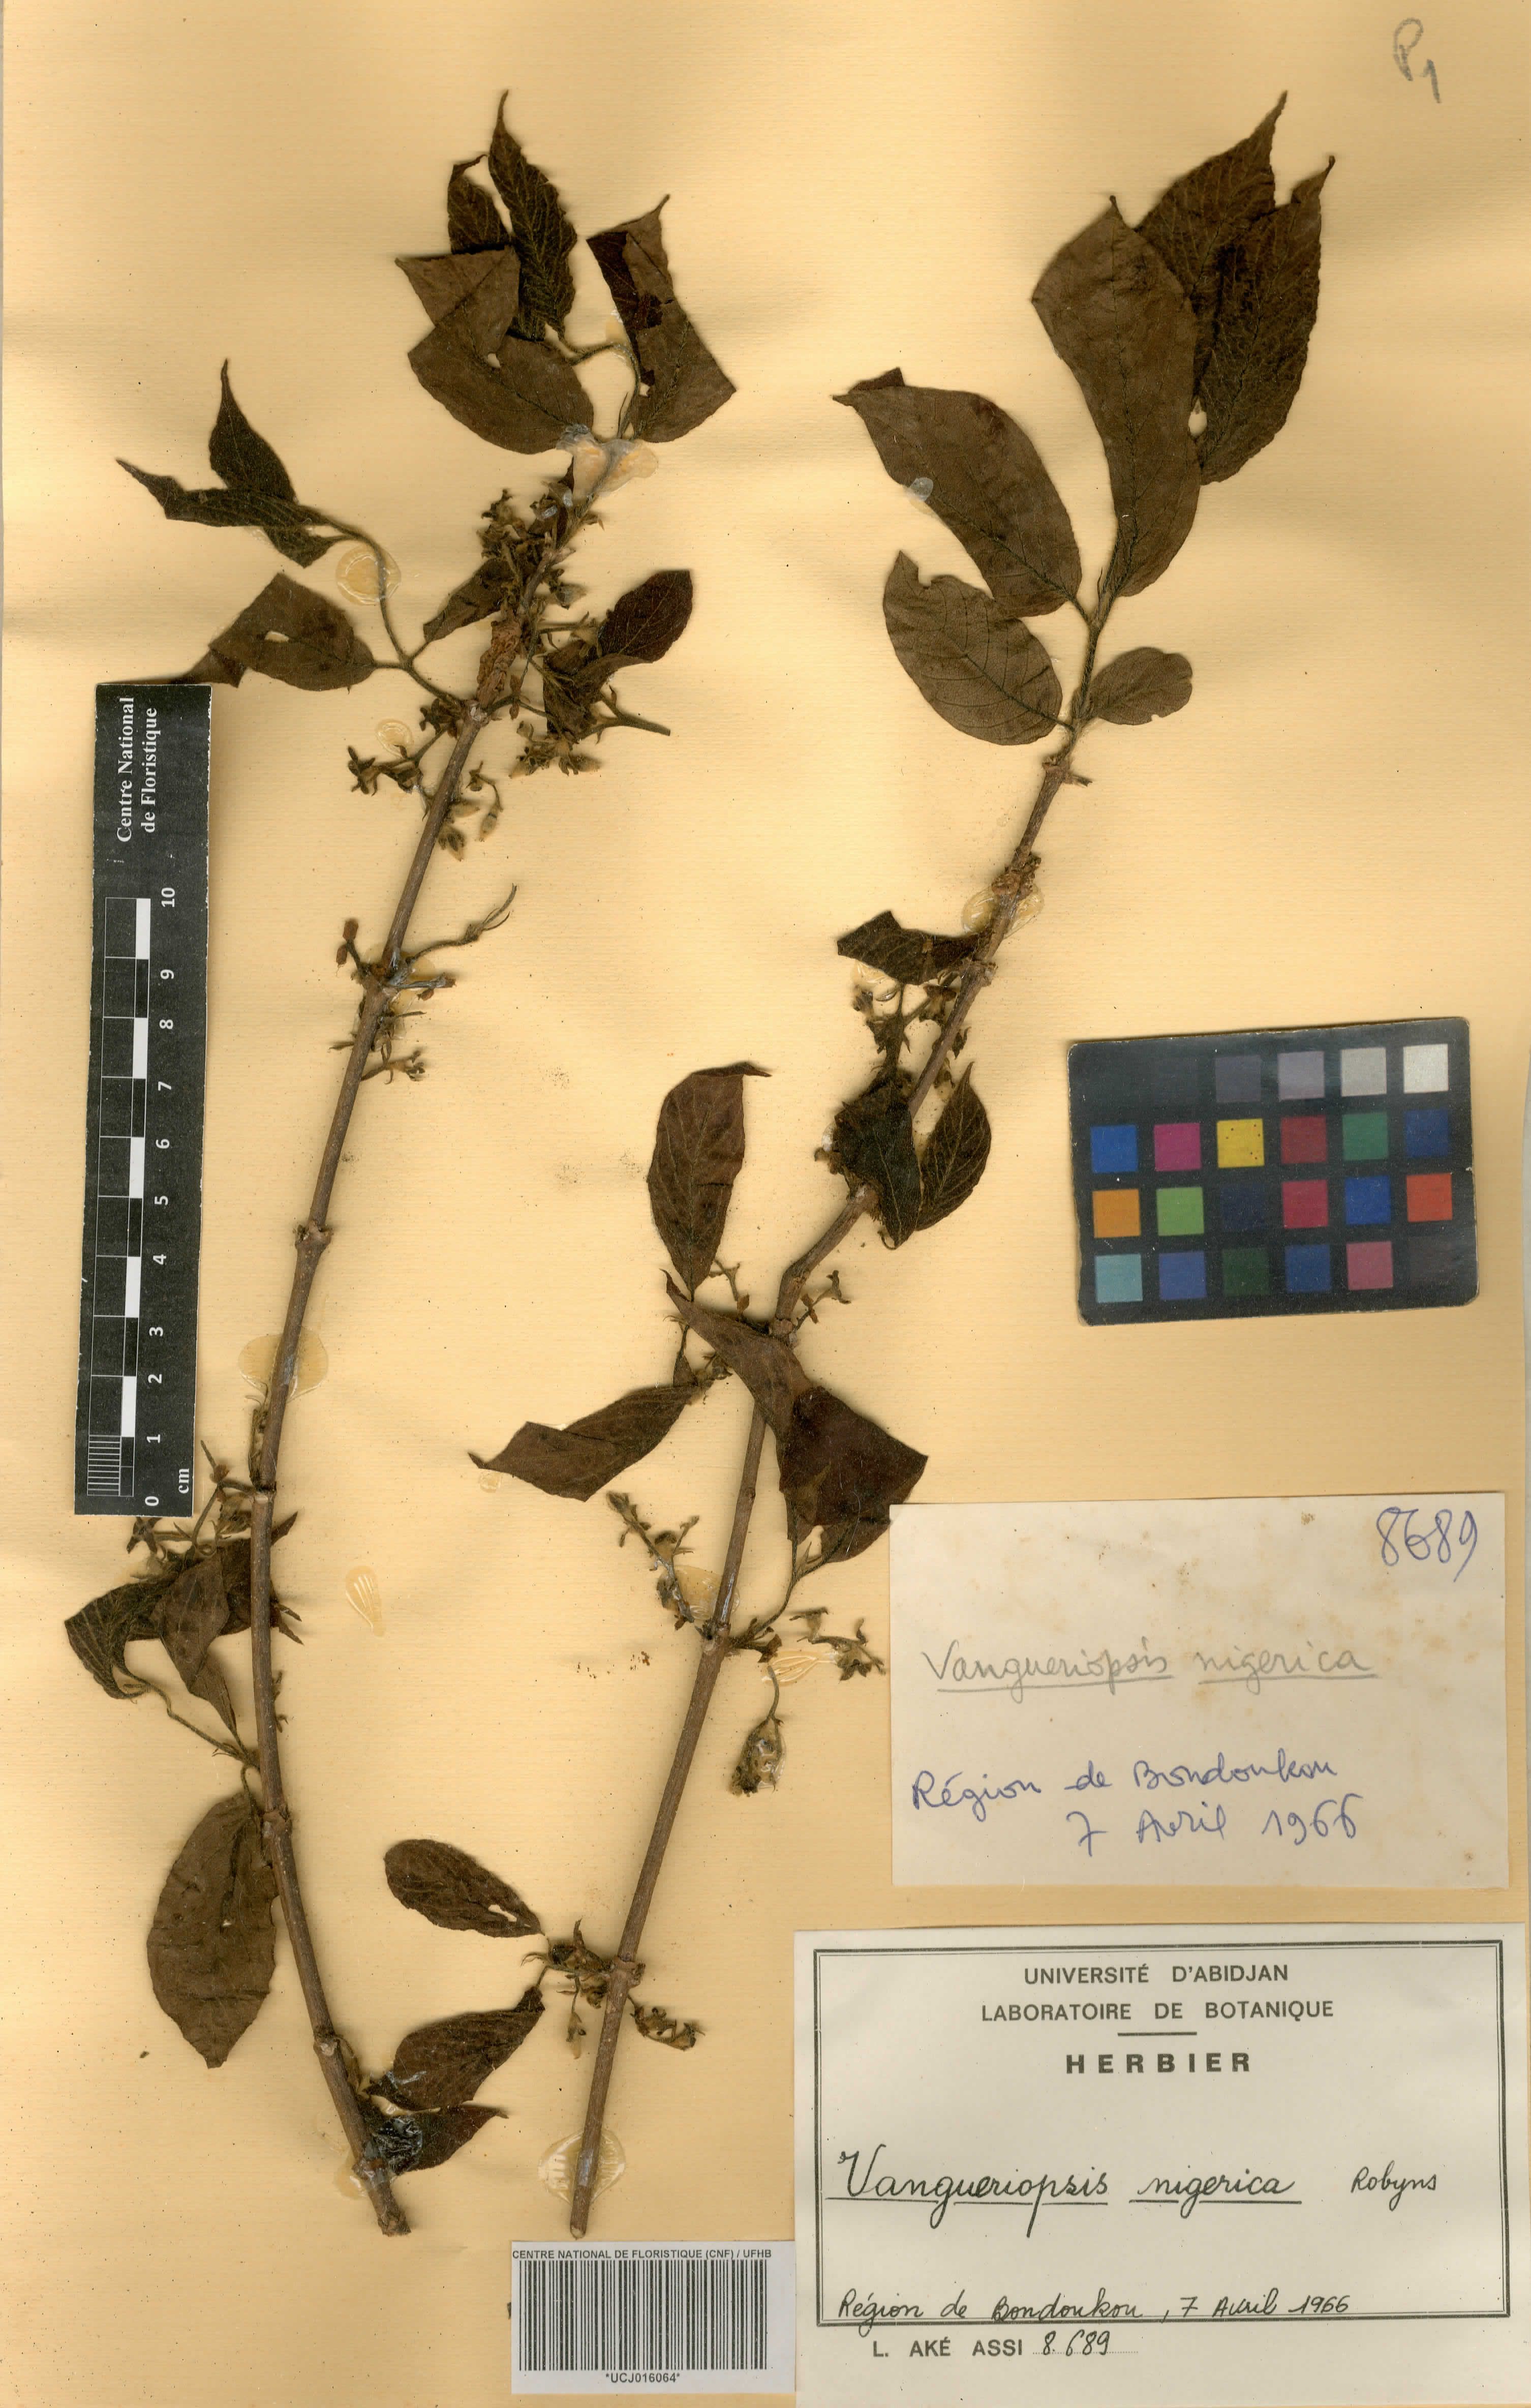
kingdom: Plantae
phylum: Tracheophyta
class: Magnoliopsida
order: Gentianales
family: Rubiaceae
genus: Vangueriella
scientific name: Vangueriella nigerica
